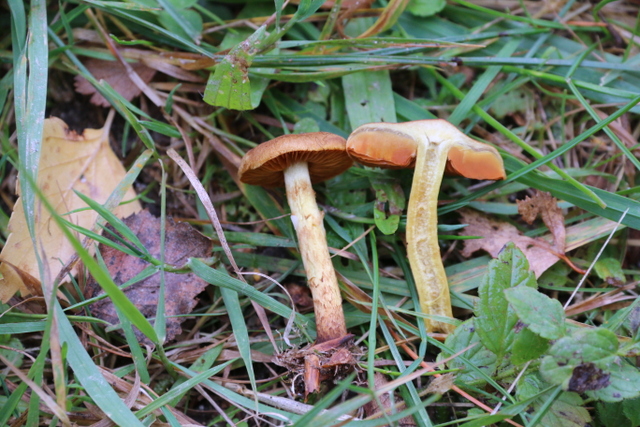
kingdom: Fungi
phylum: Basidiomycota
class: Agaricomycetes
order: Agaricales
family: Cortinariaceae
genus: Cortinarius
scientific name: Cortinarius malicorius
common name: grønkødet slørhat
